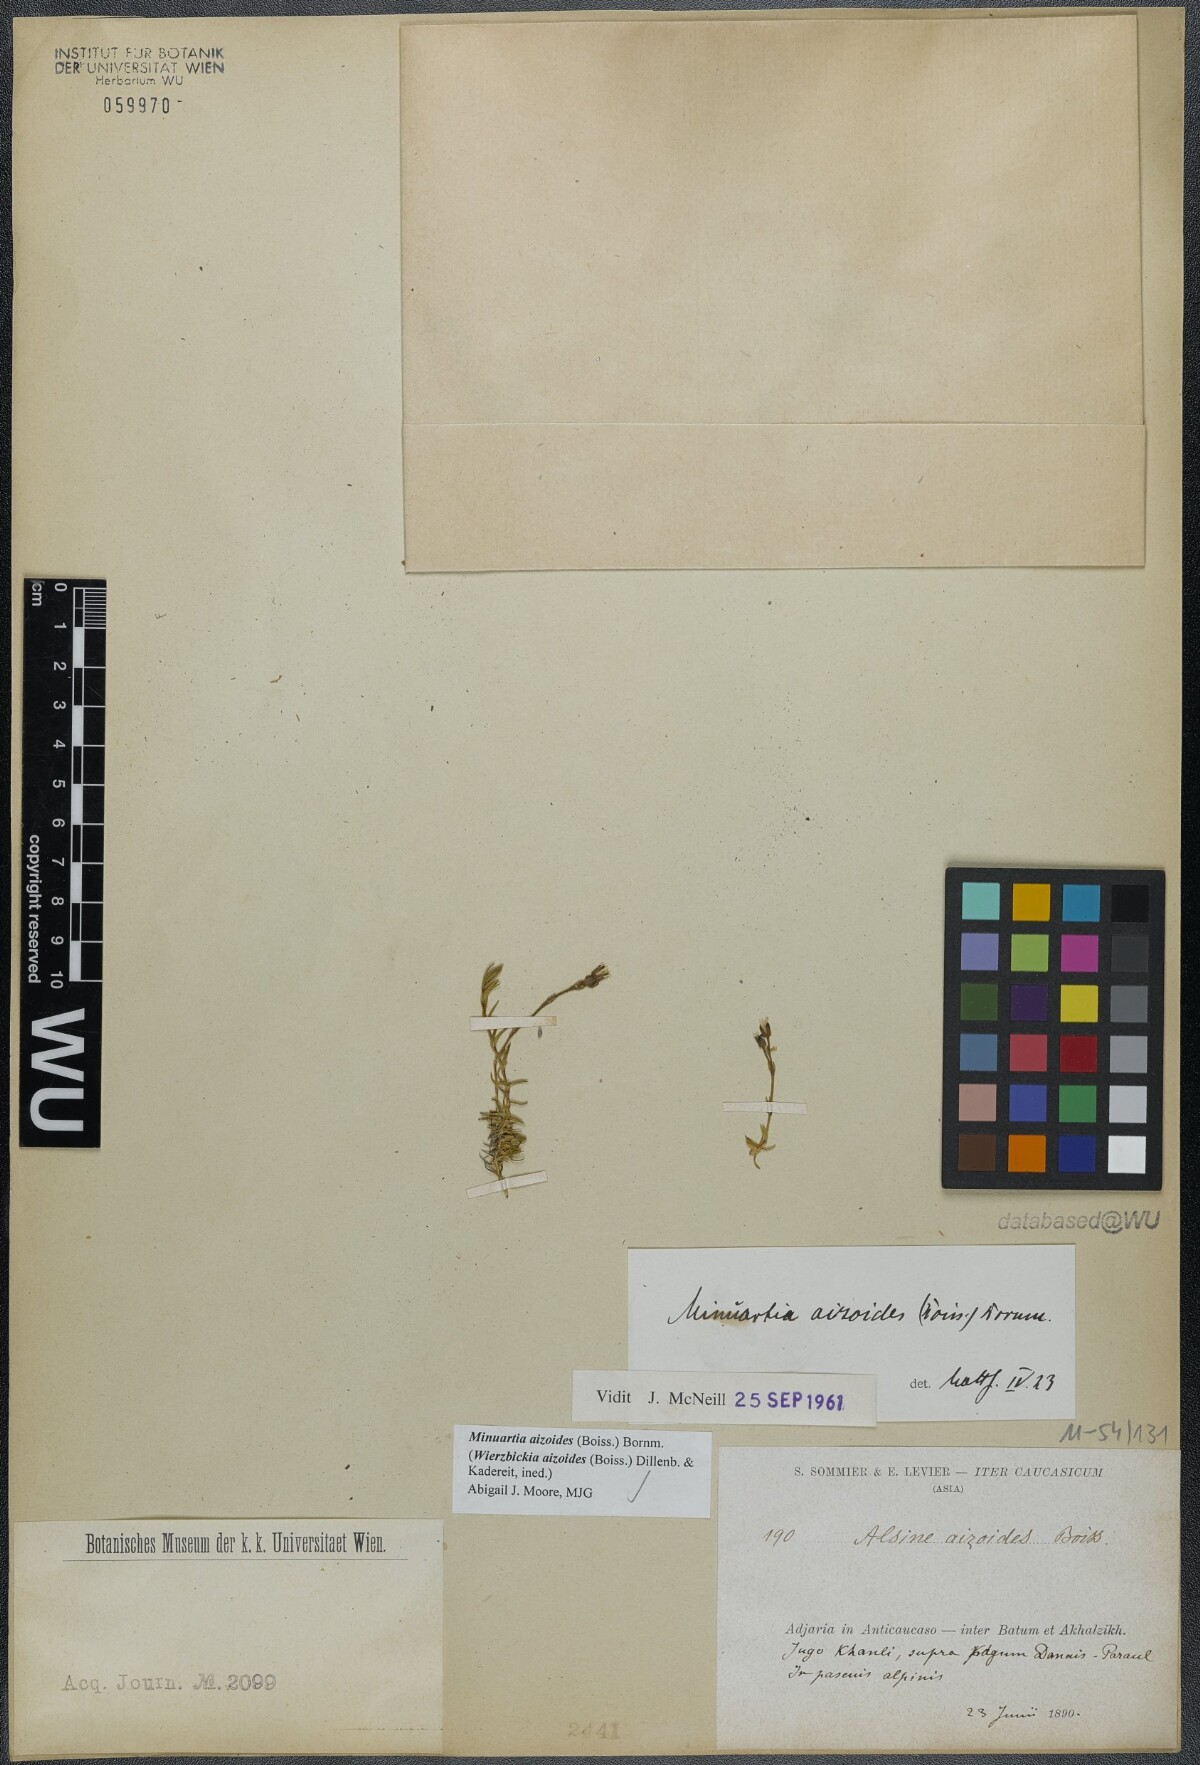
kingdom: Plantae
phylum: Tracheophyta
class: Magnoliopsida
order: Caryophyllales
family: Caryophyllaceae
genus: Pseudocherleria
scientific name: Pseudocherleria aizoides
